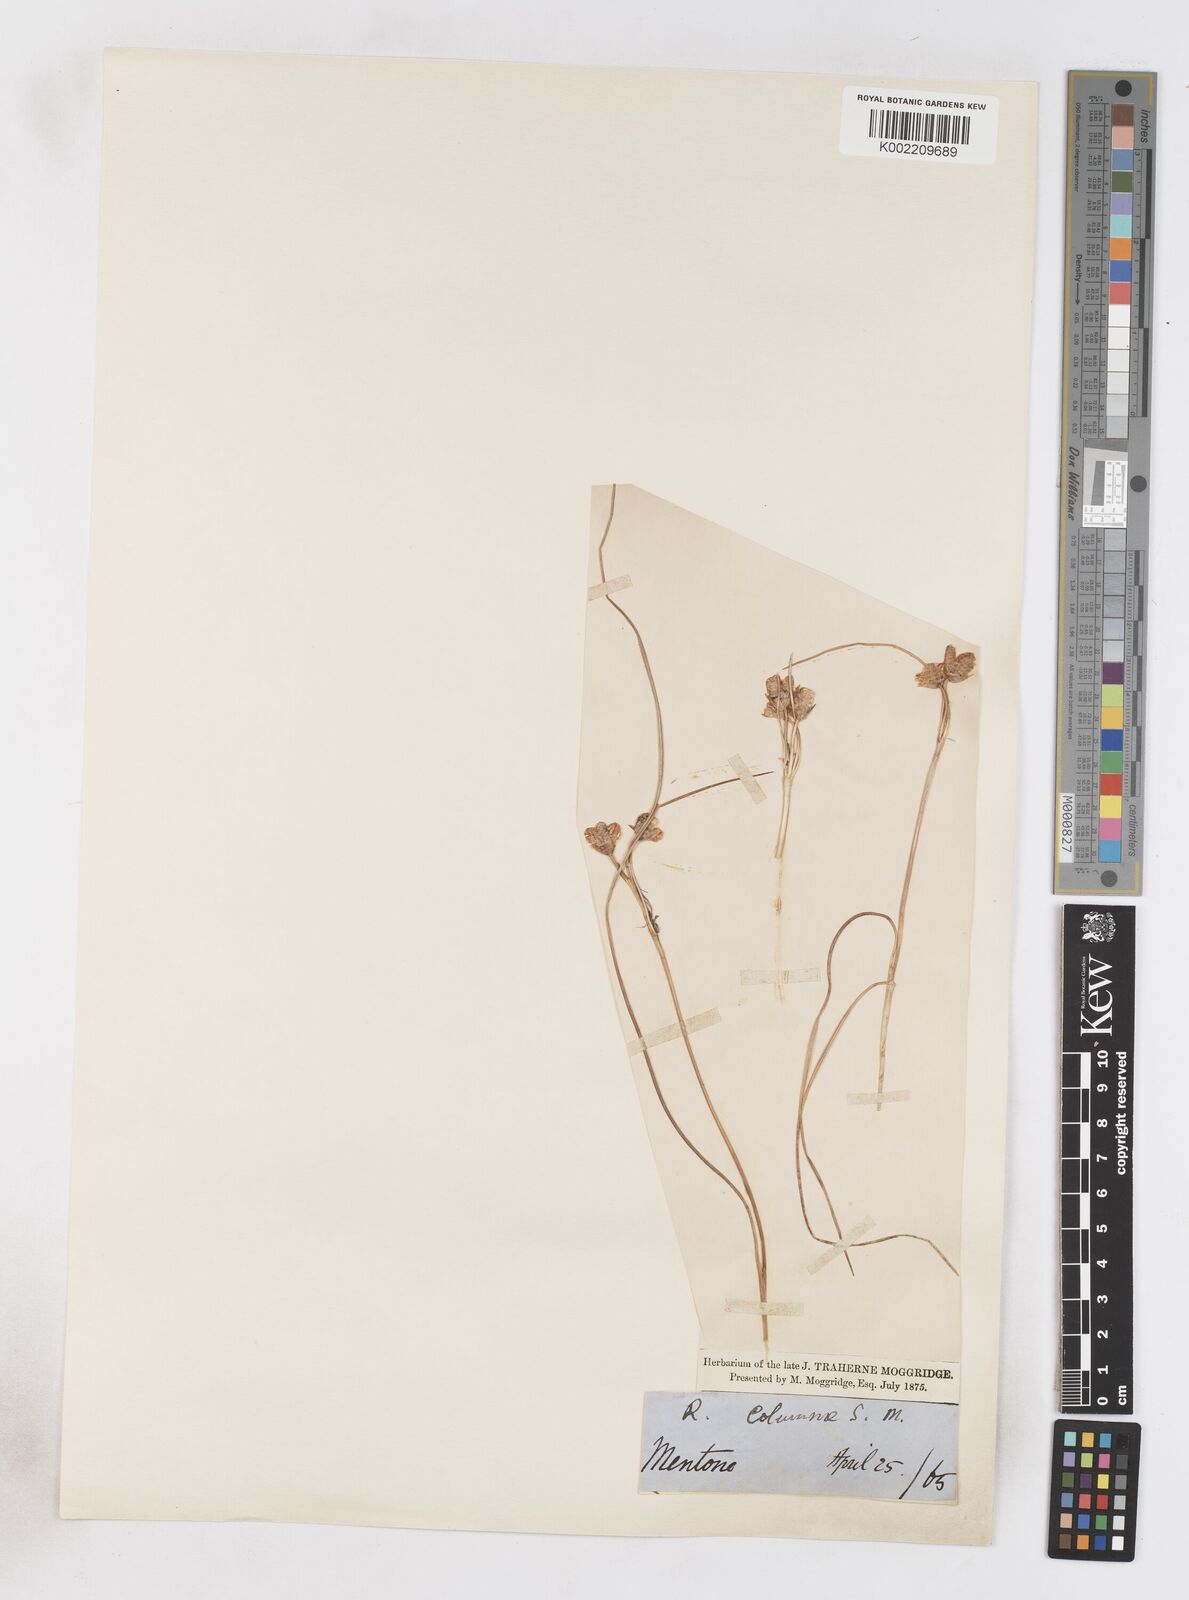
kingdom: Plantae
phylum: Tracheophyta
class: Liliopsida
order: Asparagales
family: Iridaceae
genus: Romulea
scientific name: Romulea ramiflora
